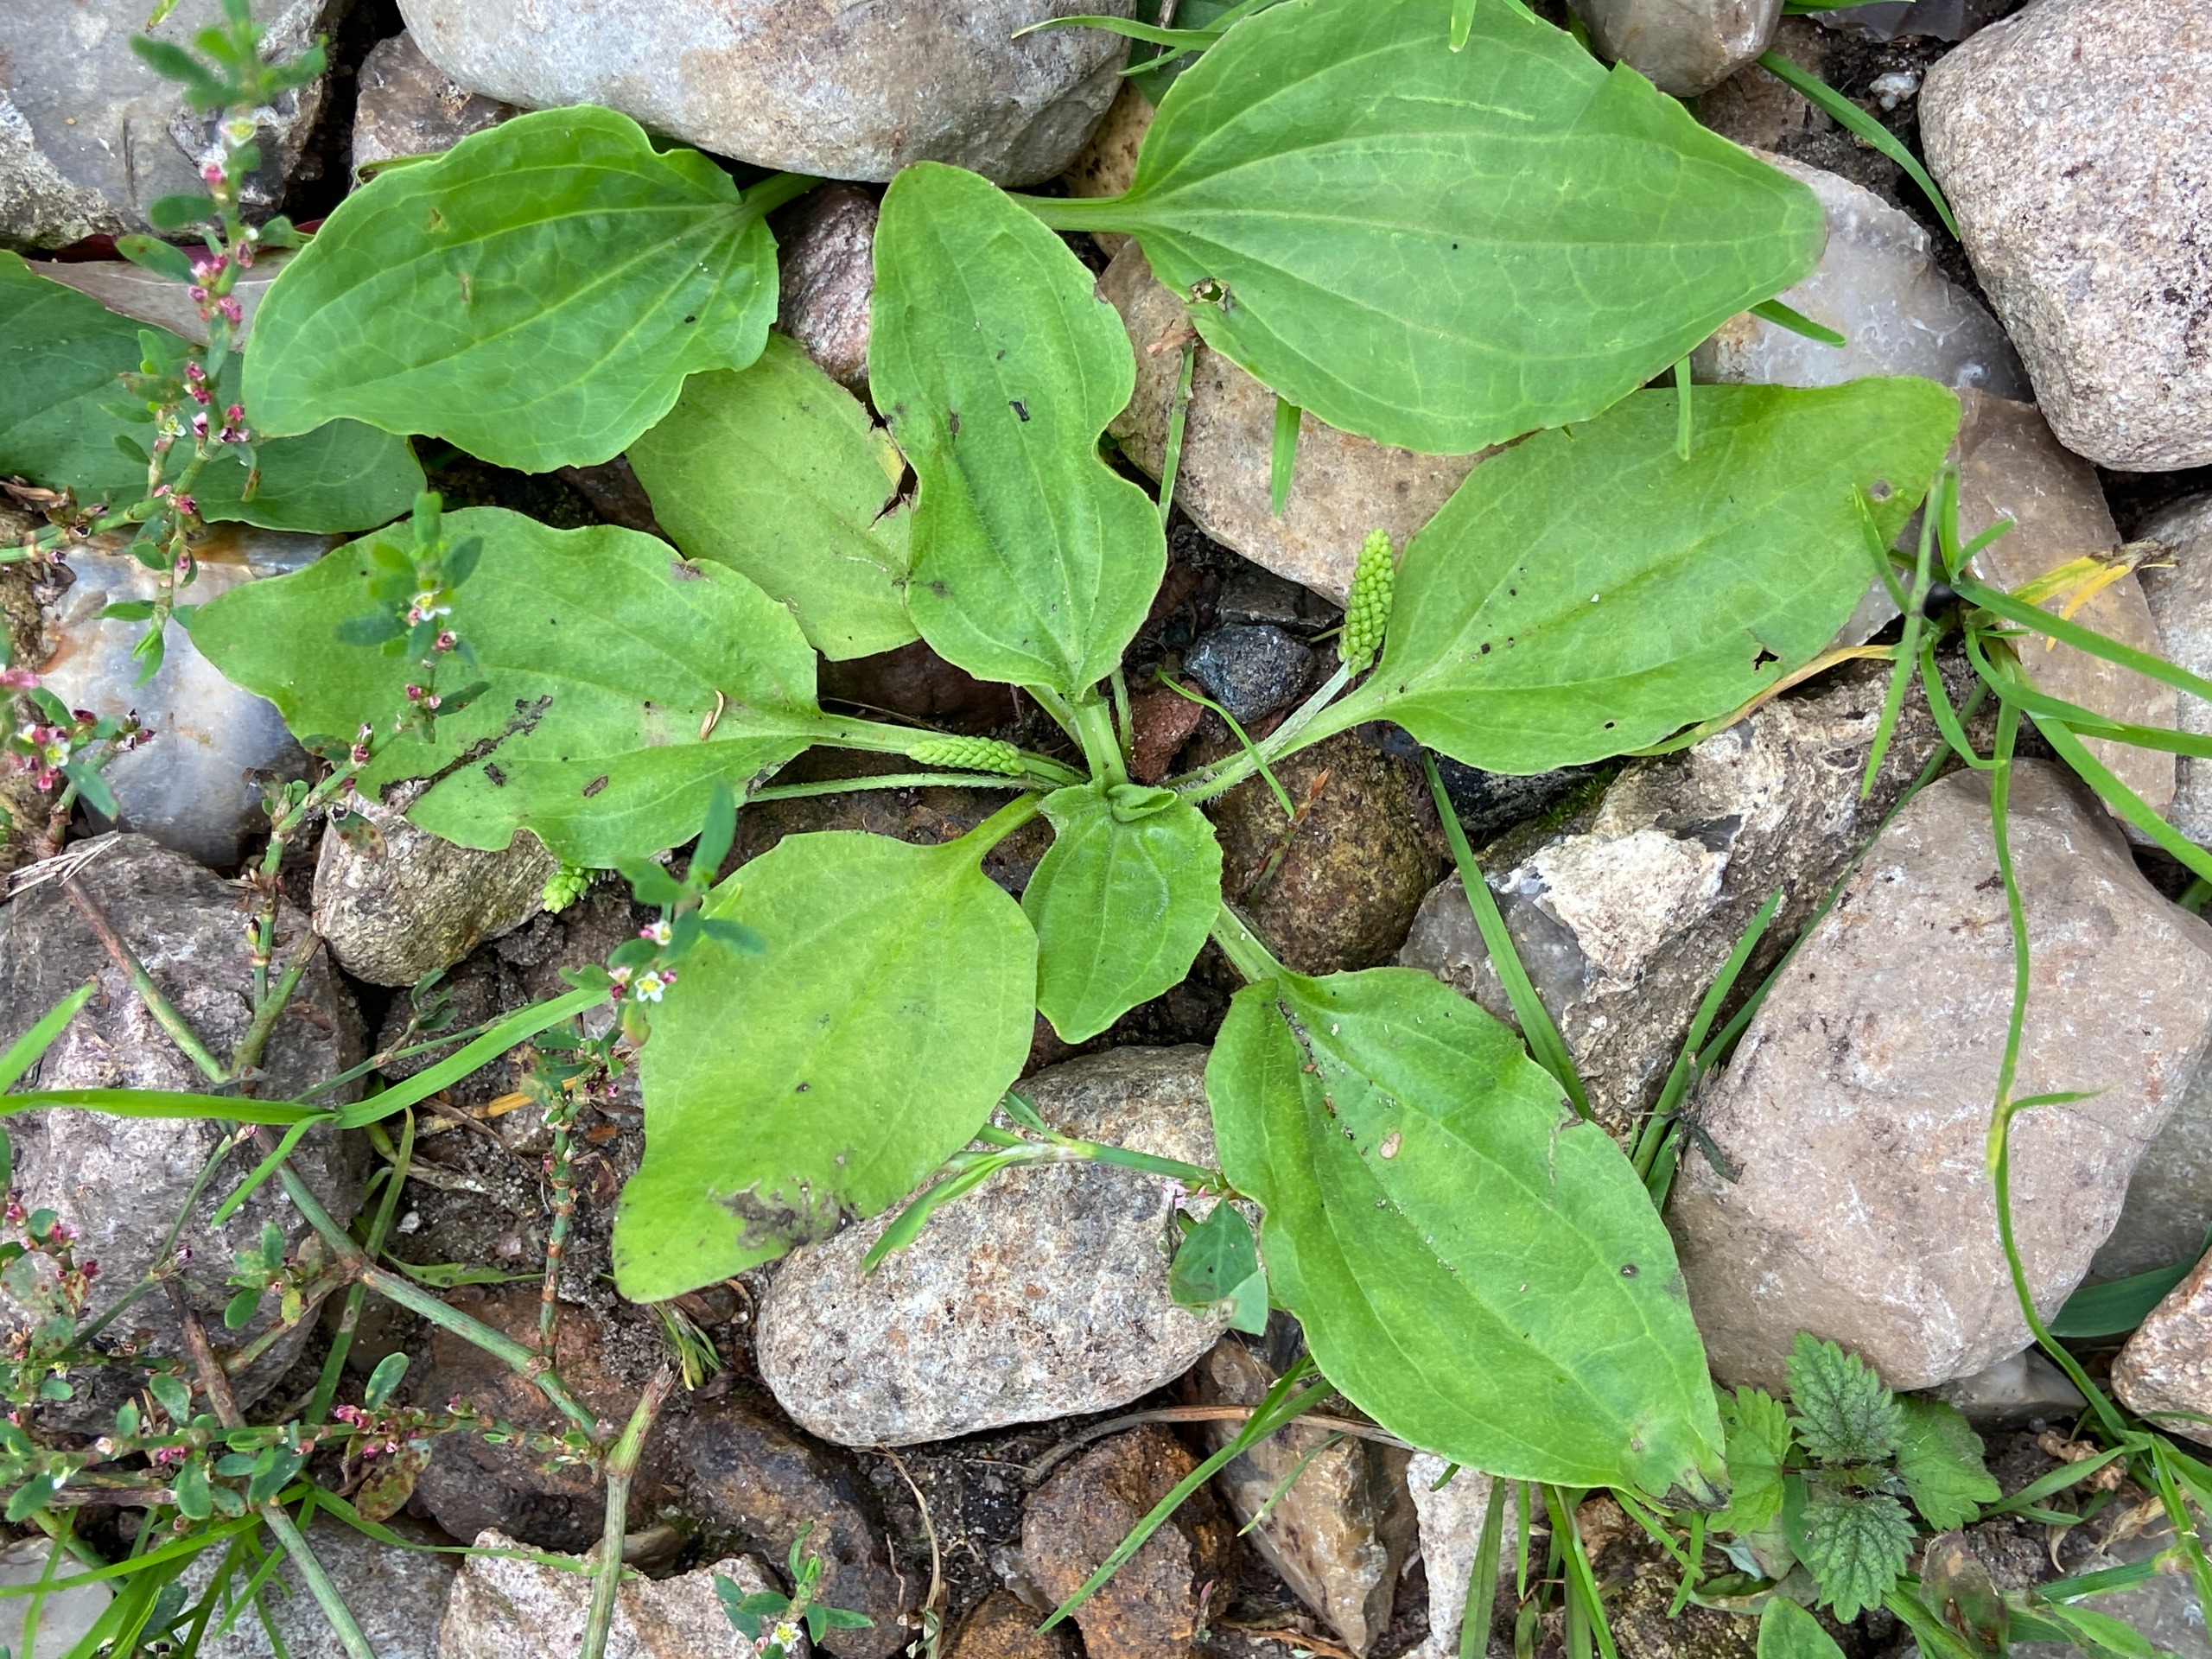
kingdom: Plantae
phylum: Tracheophyta
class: Magnoliopsida
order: Lamiales
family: Plantaginaceae
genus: Plantago
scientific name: Plantago major
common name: Glat vejbred
